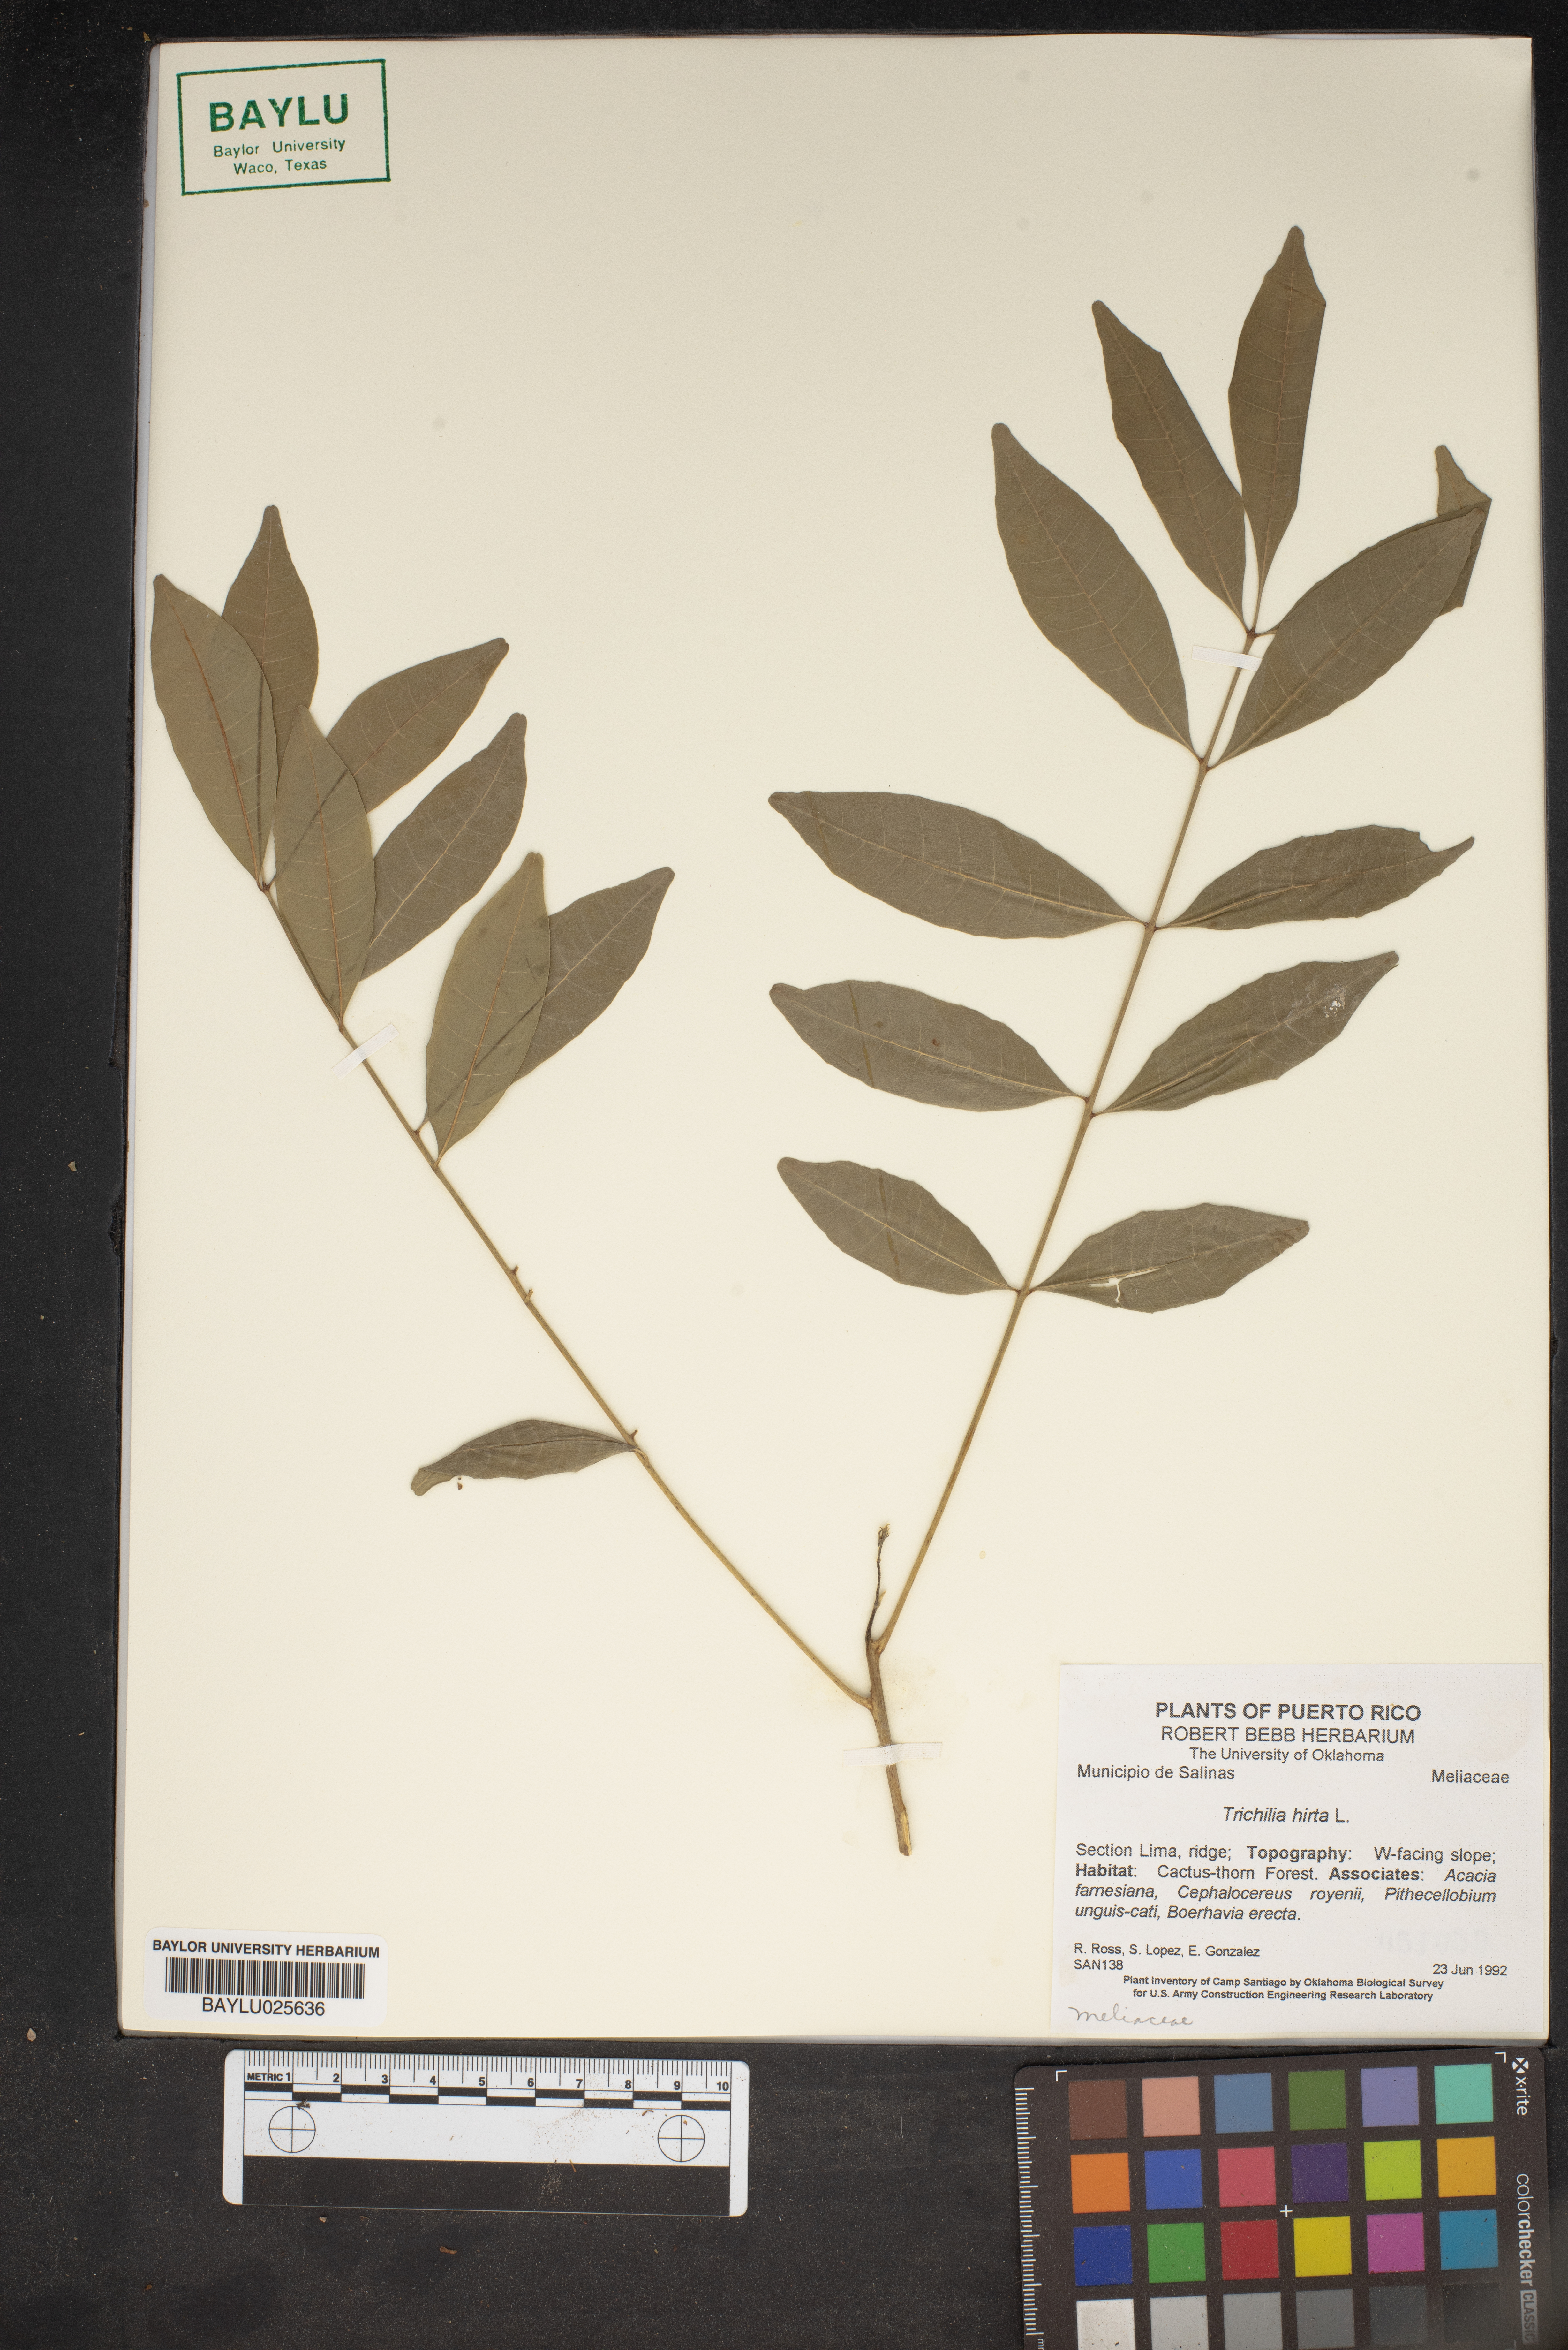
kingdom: Plantae
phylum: Tracheophyta
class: Magnoliopsida
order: Sapindales
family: Meliaceae
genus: Trichilia
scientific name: Trichilia hirta
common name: Red-cedar
